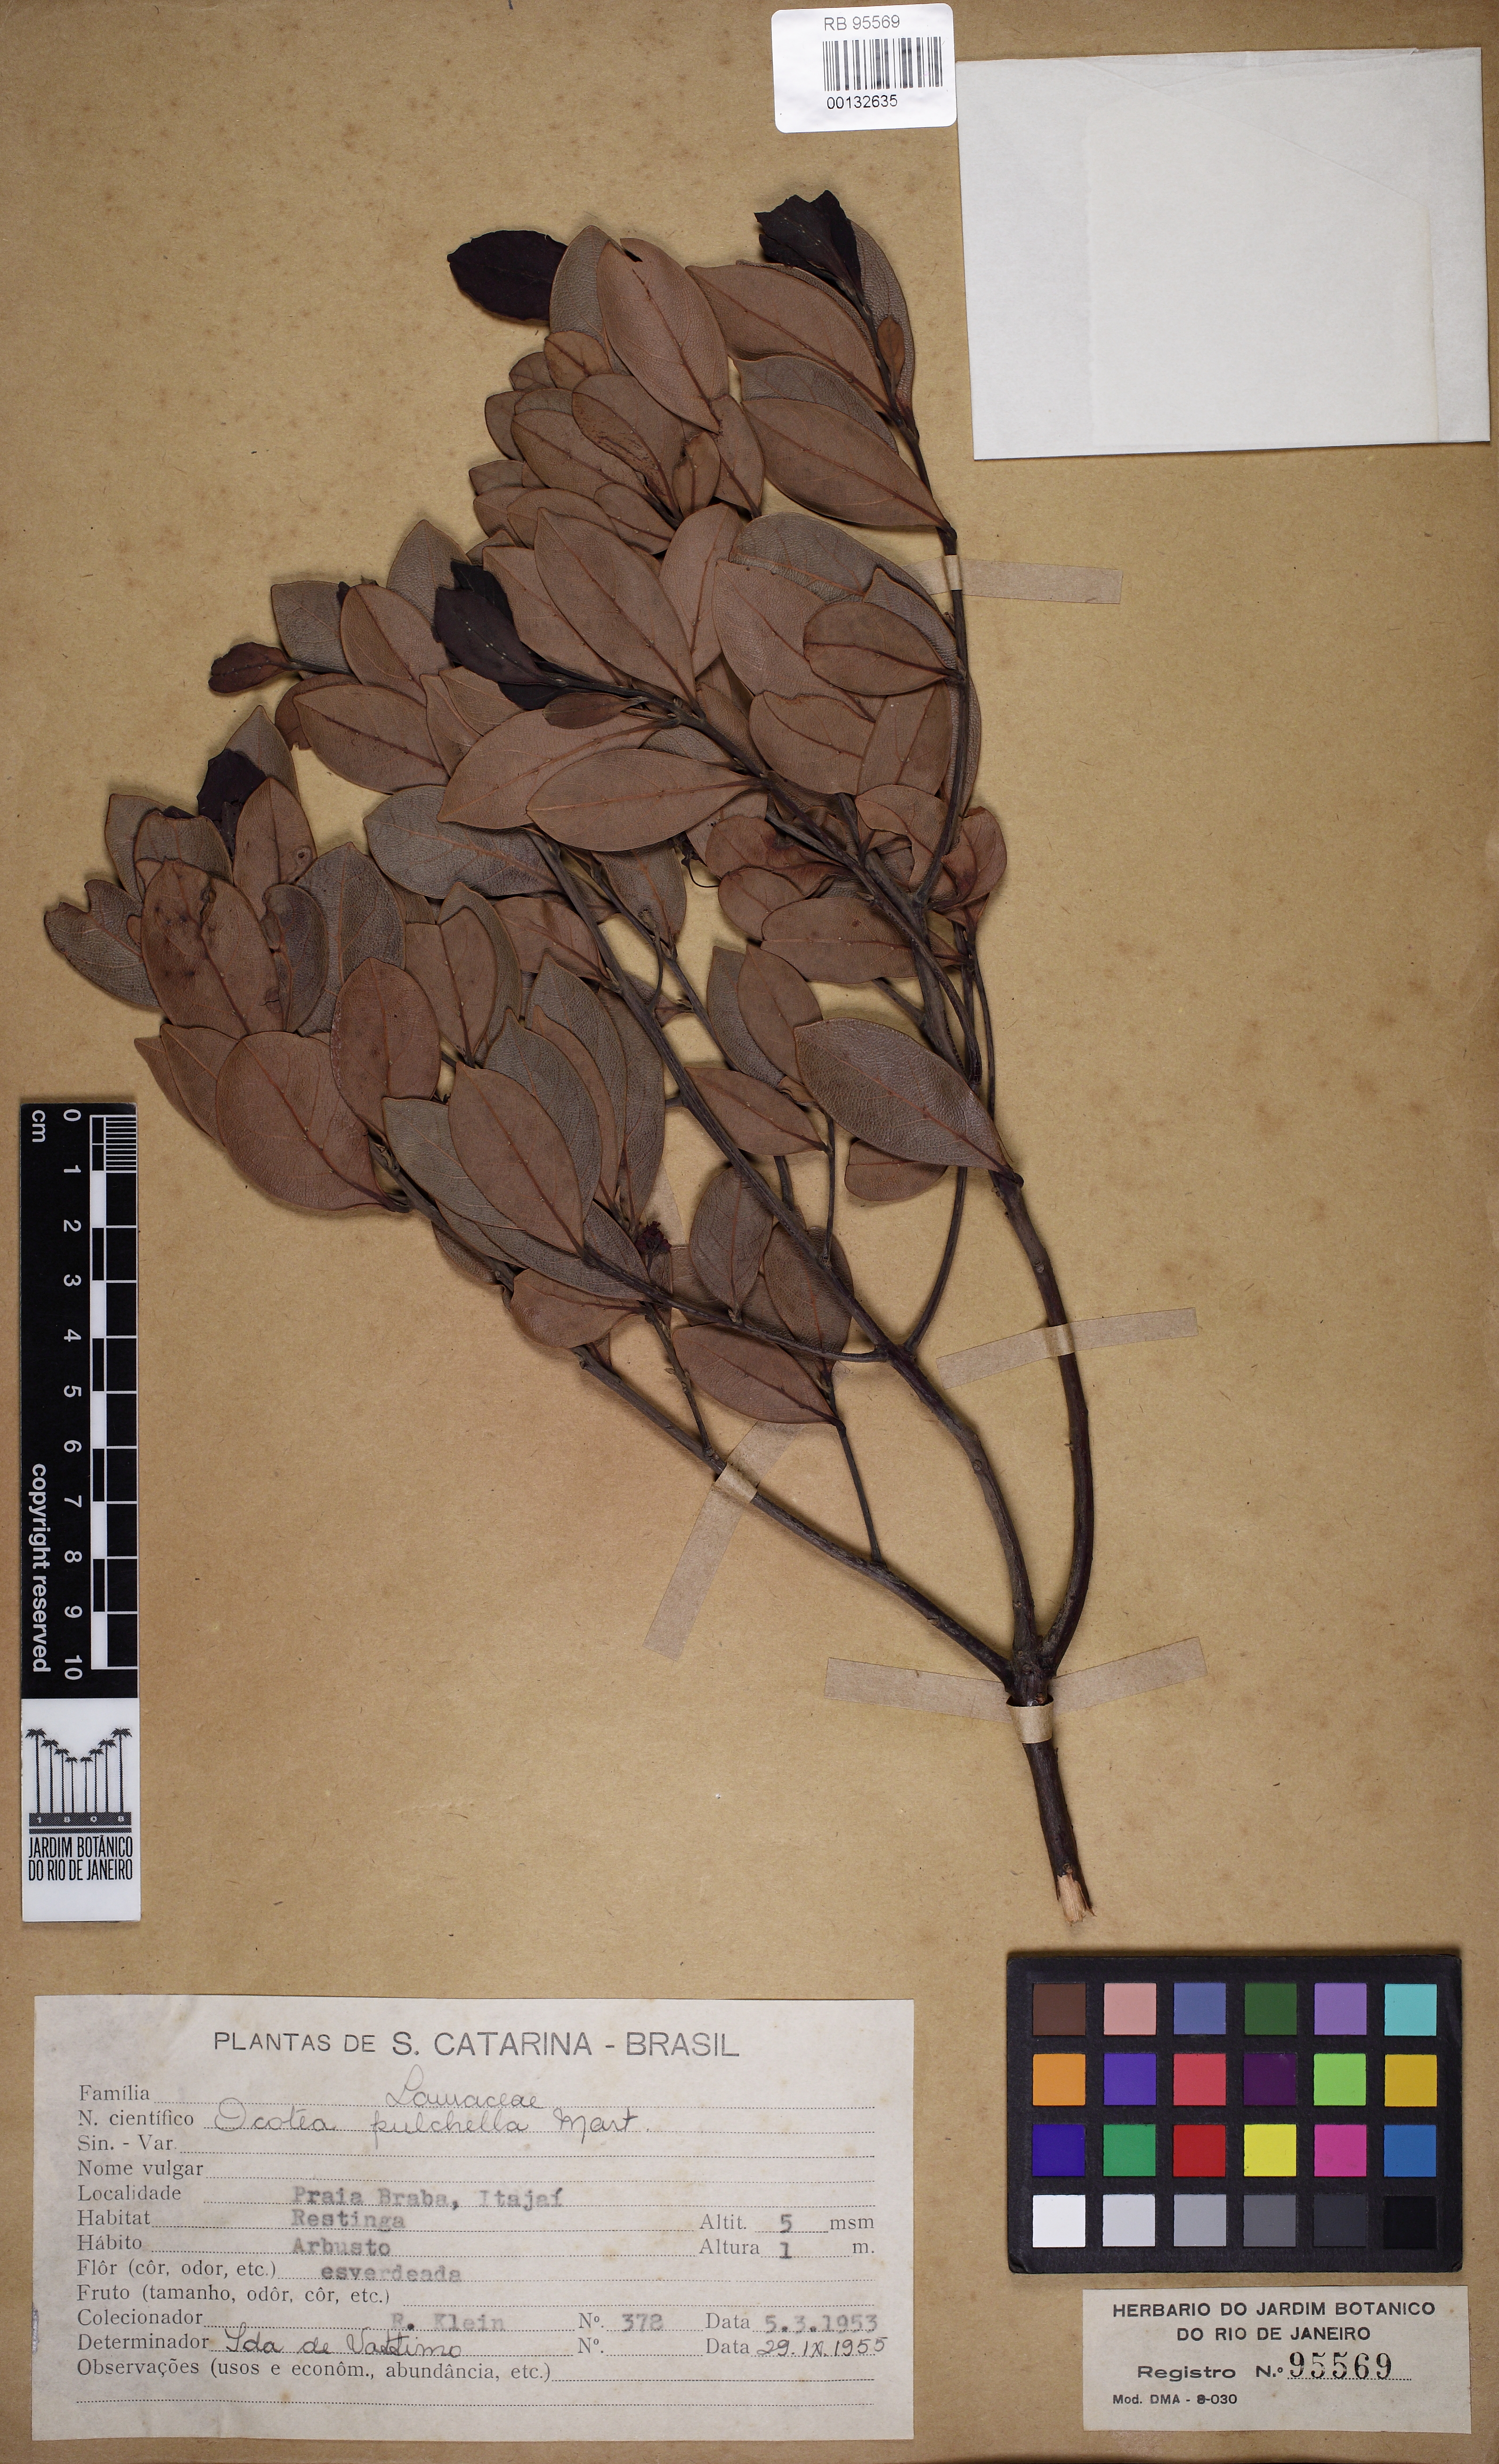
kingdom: Plantae
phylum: Tracheophyta
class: Magnoliopsida
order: Laurales
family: Lauraceae
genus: Mespilodaphne
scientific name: Mespilodaphne pulchella
